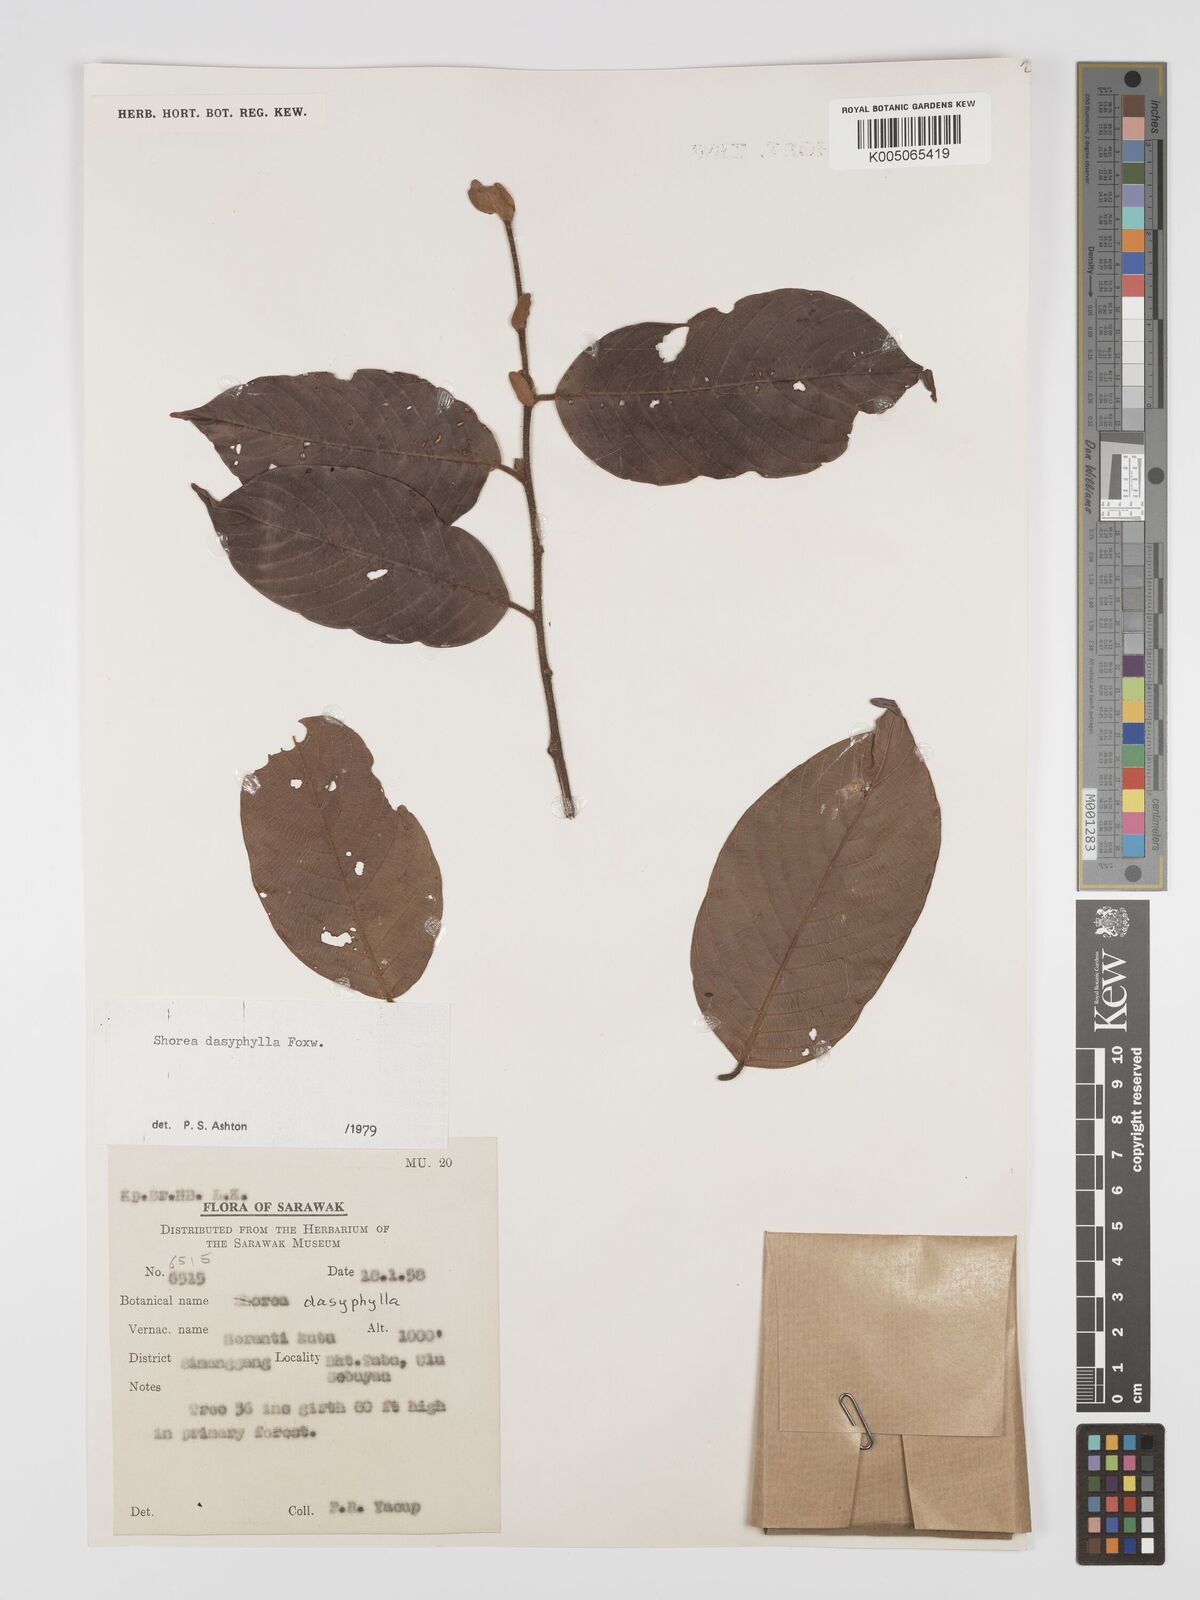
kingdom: Plantae
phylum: Tracheophyta
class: Magnoliopsida
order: Malvales
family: Dipterocarpaceae
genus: Shorea
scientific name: Shorea dasyphylla
